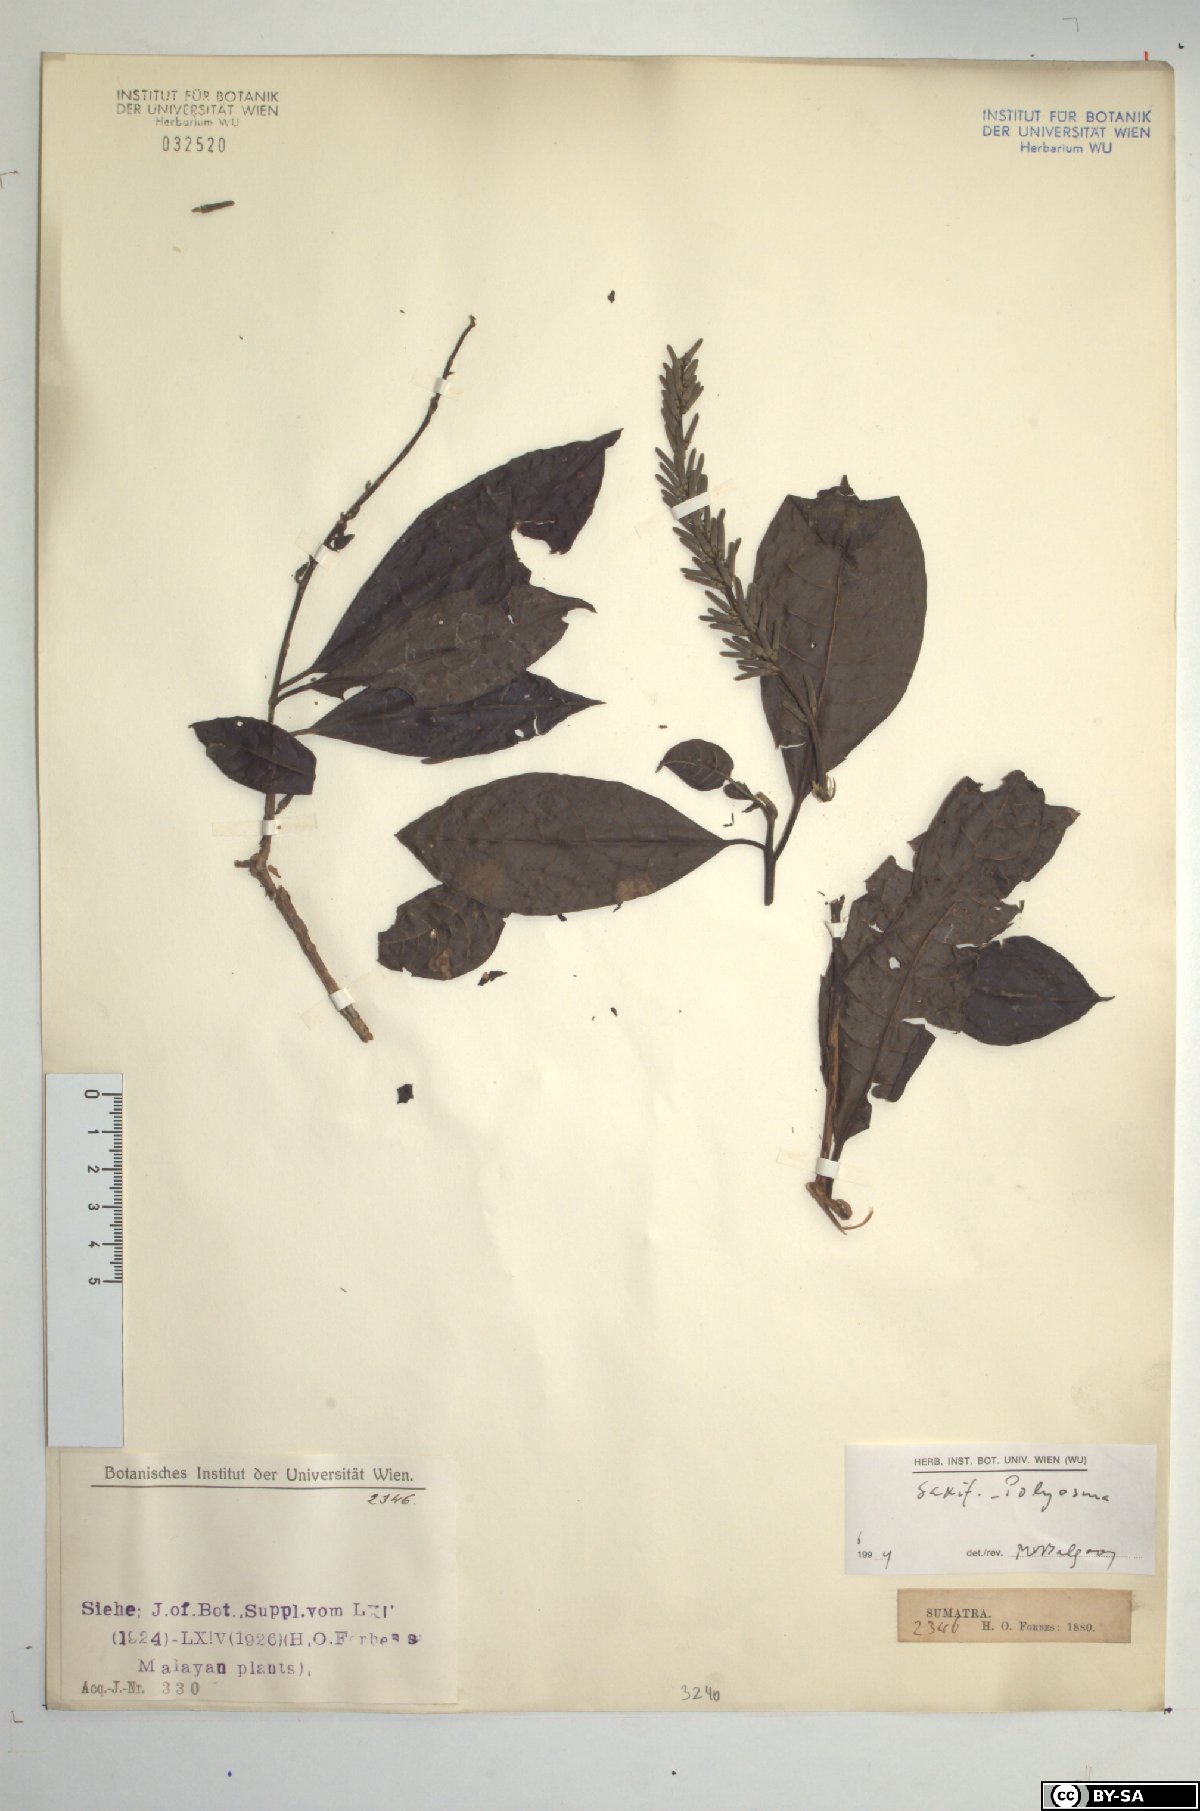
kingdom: Plantae
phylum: Tracheophyta
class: Magnoliopsida
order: Escalloniales
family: Escalloniaceae
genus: Polyosma
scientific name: Polyosma
